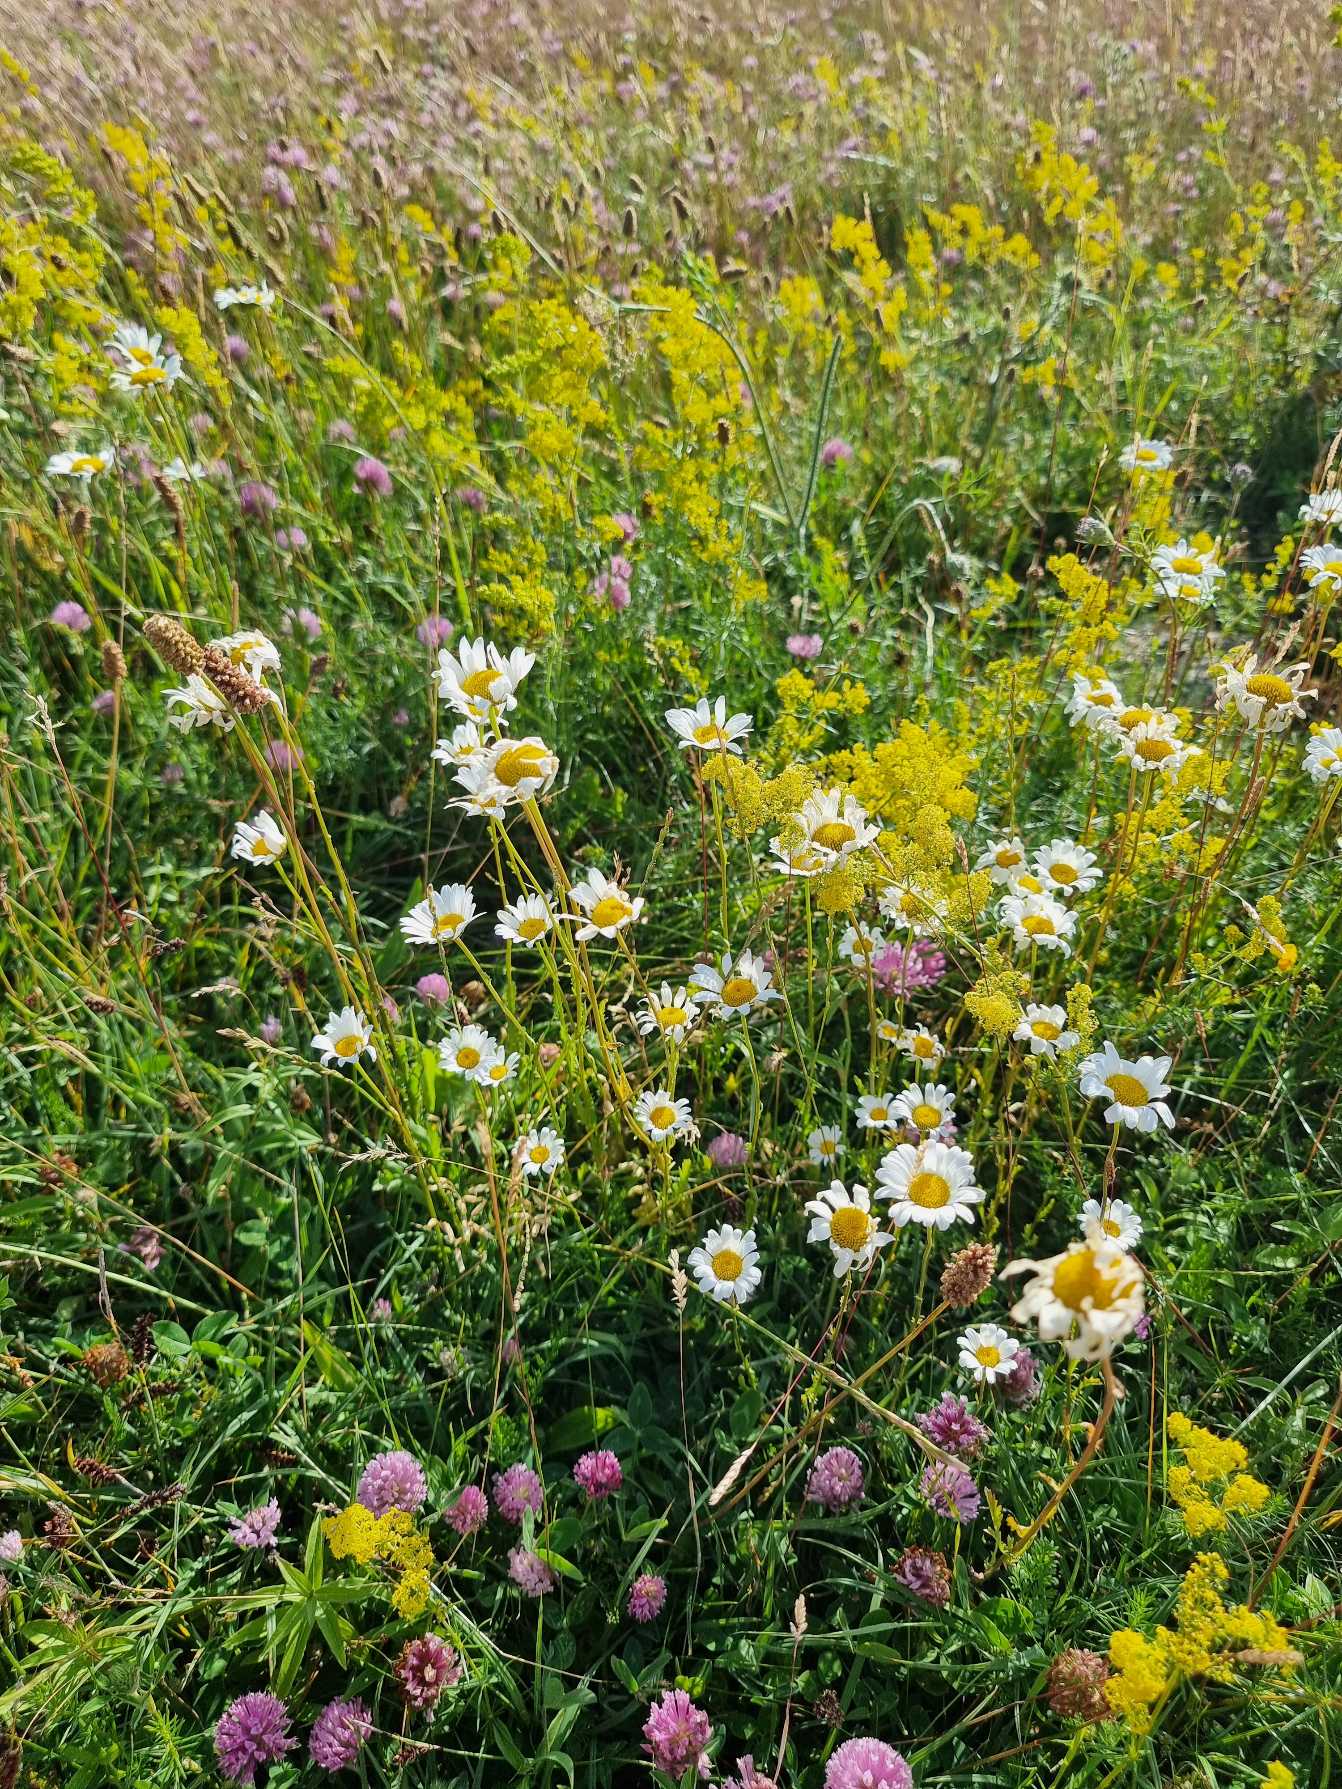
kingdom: Plantae
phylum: Tracheophyta
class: Magnoliopsida
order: Asterales
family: Asteraceae
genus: Leucanthemum
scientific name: Leucanthemum vulgare
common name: Hvid okseøje
